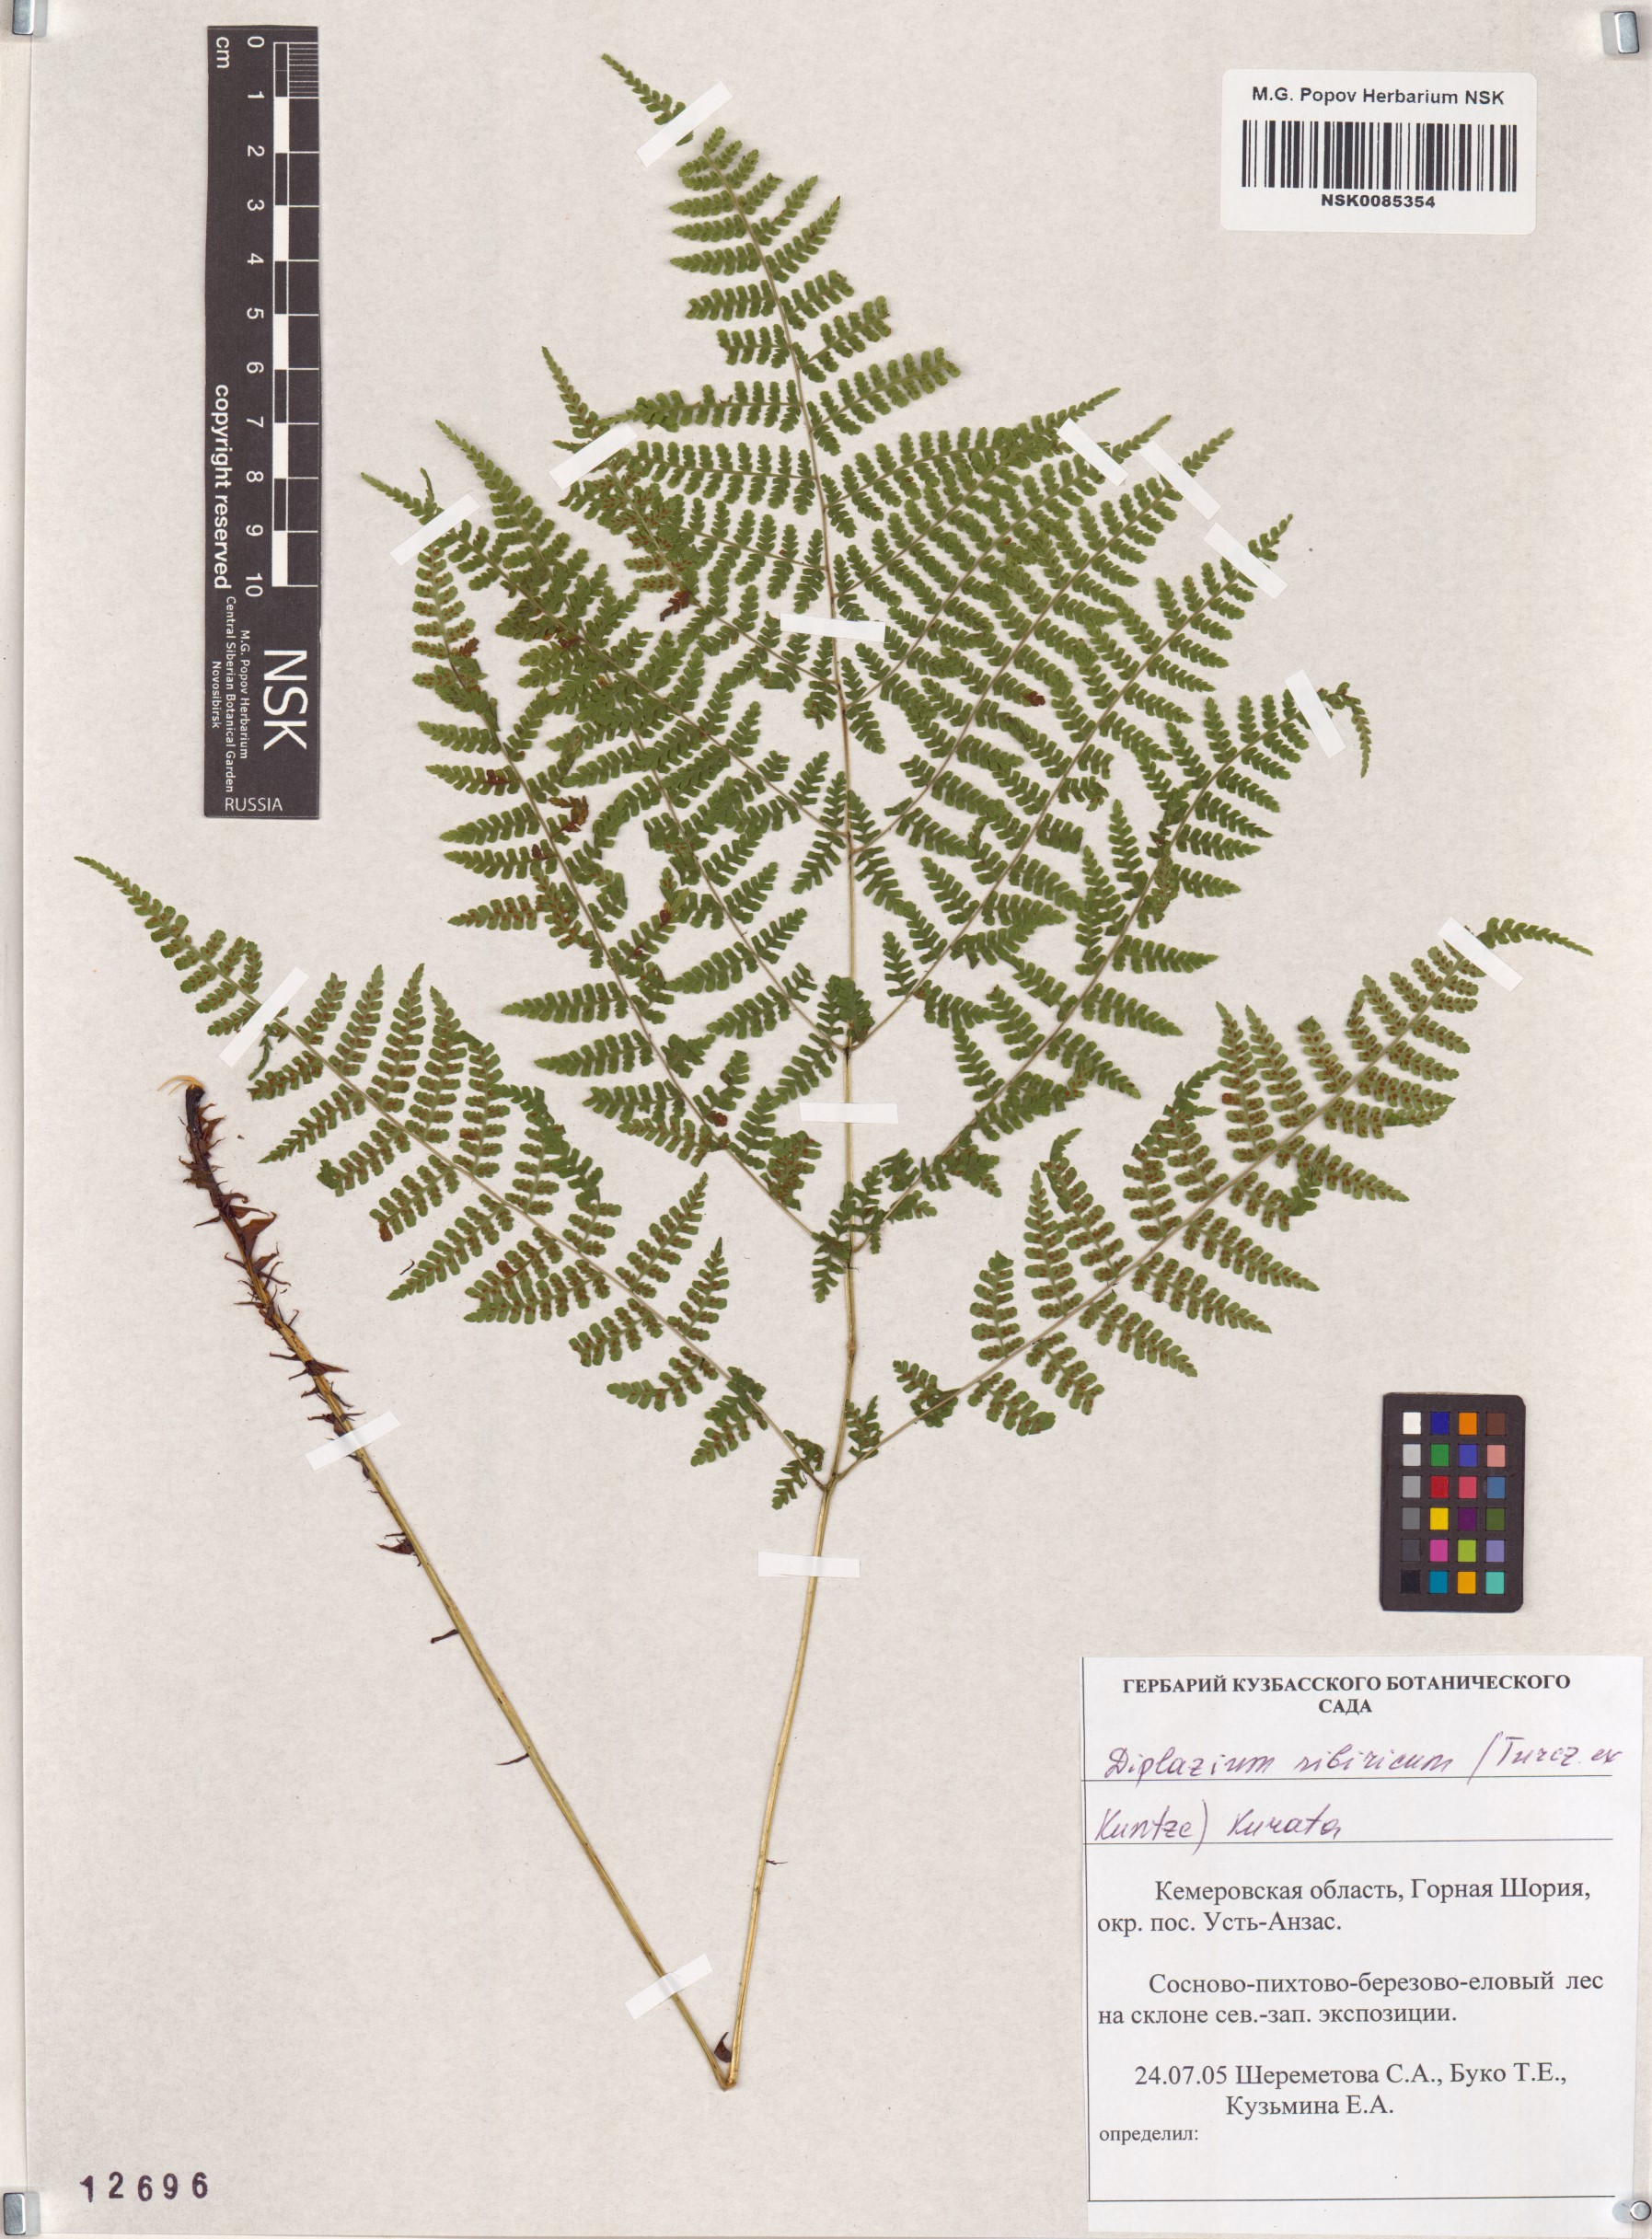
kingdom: Plantae
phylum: Tracheophyta
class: Polypodiopsida
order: Polypodiales
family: Athyriaceae
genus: Diplazium
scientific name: Diplazium sibiricum
